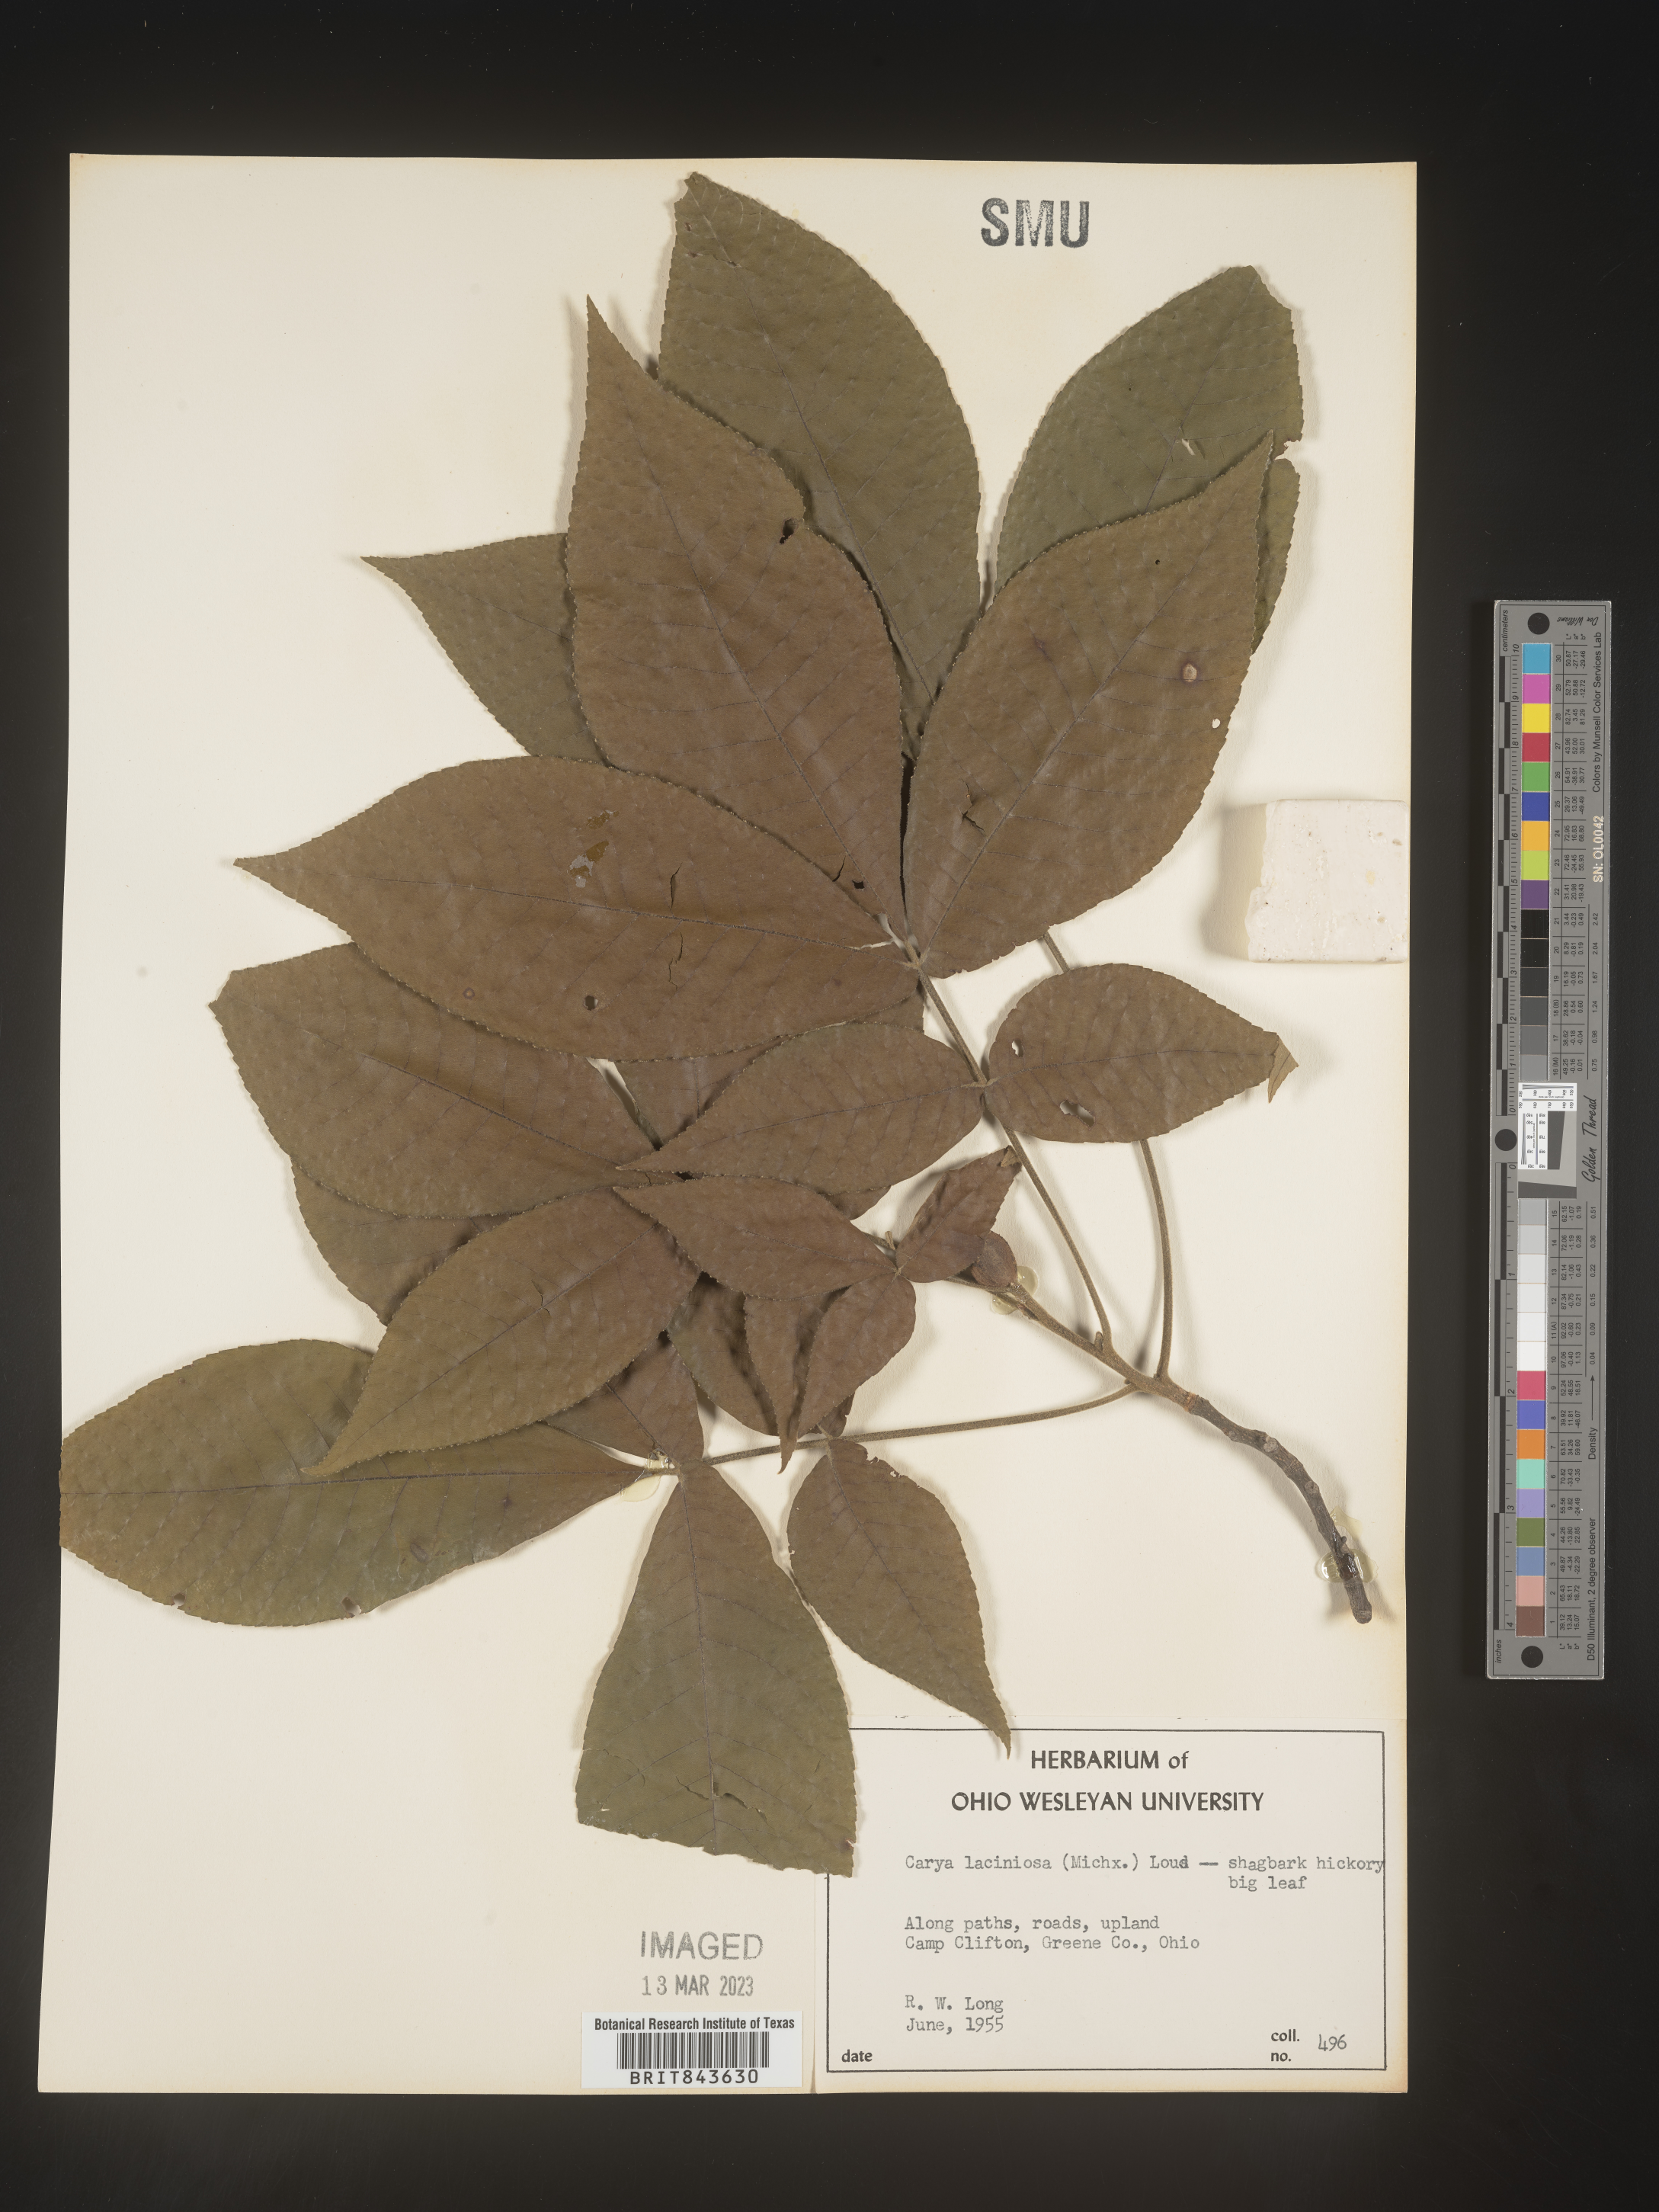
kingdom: Plantae
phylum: Tracheophyta
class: Magnoliopsida
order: Fagales
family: Juglandaceae
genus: Carya
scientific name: Carya laciniosa
